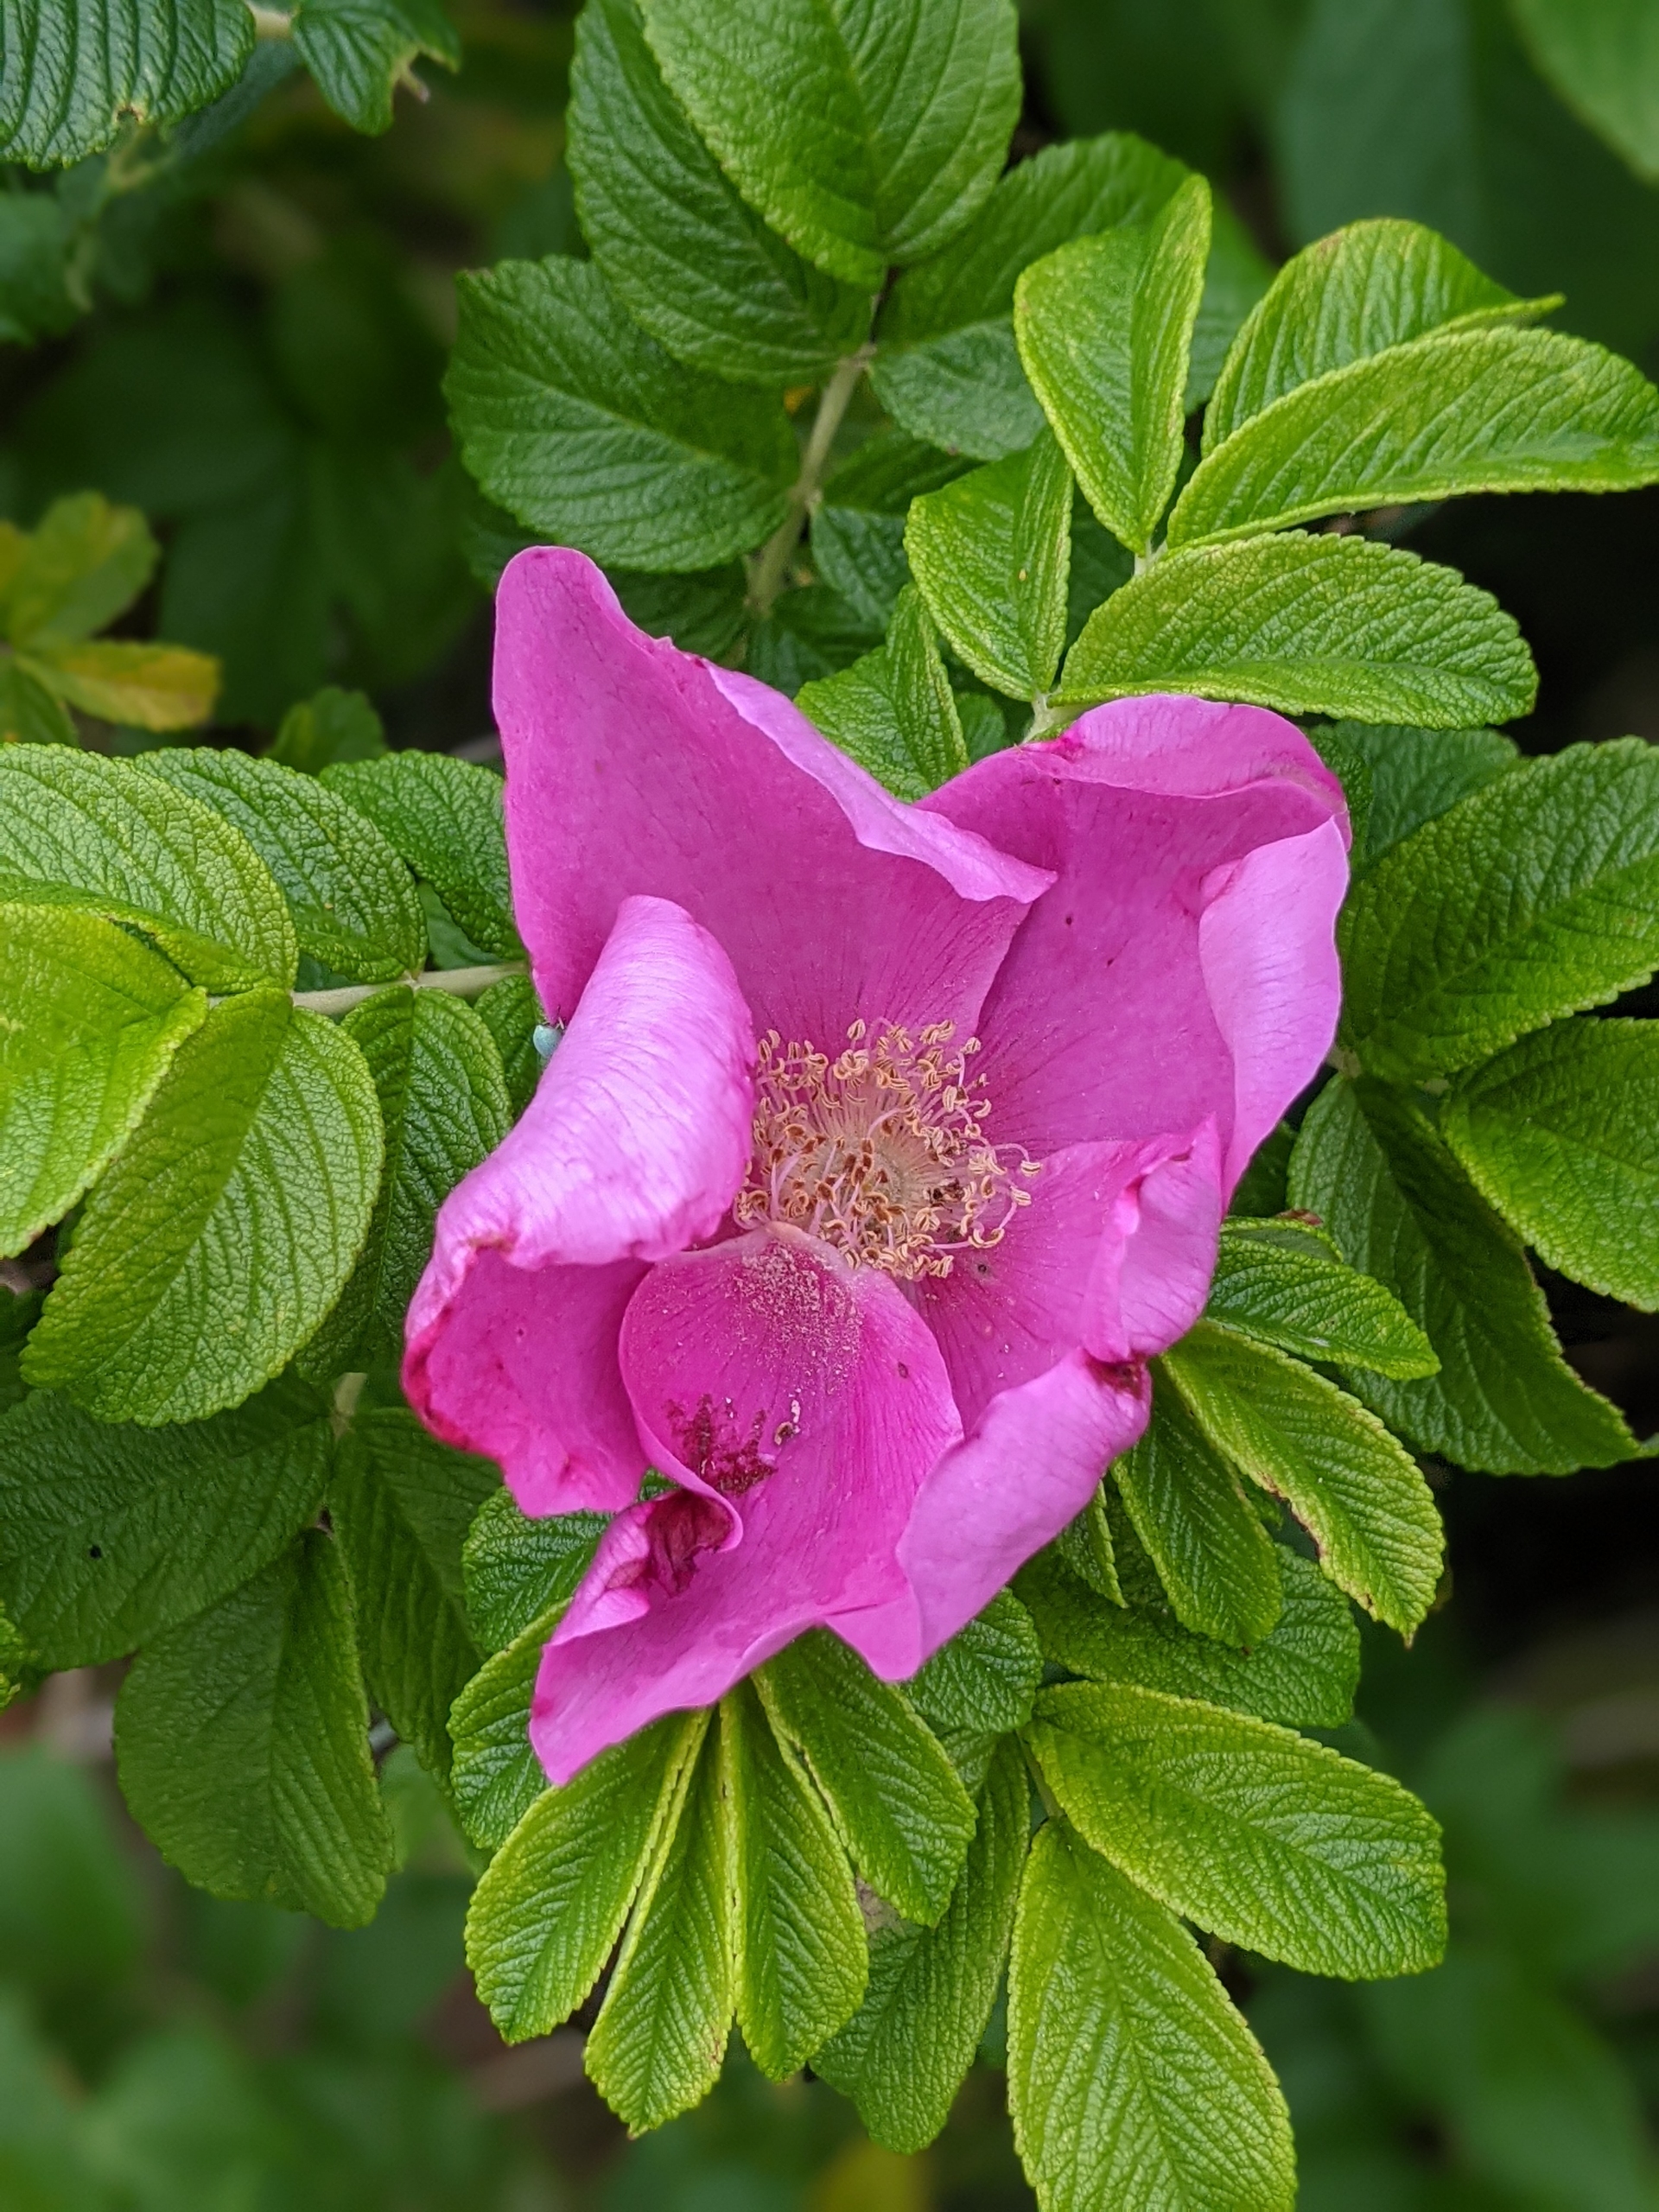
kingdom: Plantae
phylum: Tracheophyta
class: Magnoliopsida
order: Rosales
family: Rosaceae
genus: Rosa
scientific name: Rosa rugosa
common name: Rynket rose
